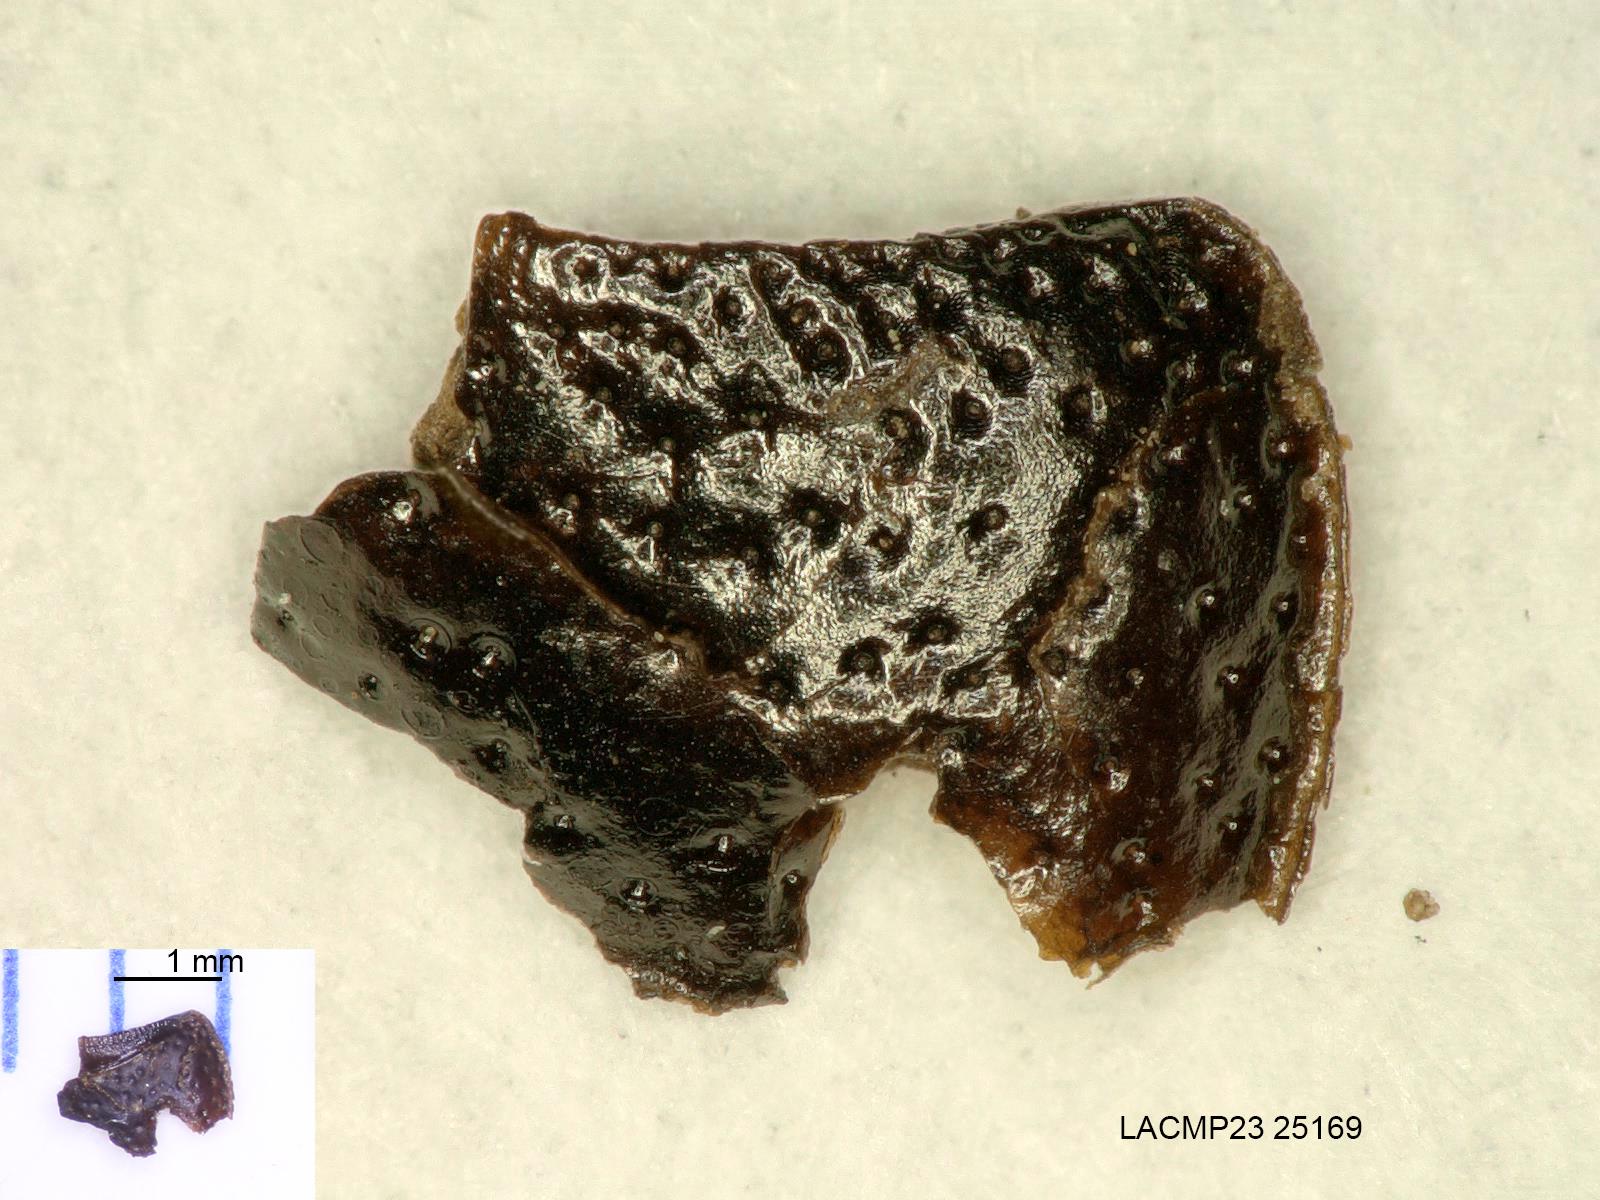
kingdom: Animalia
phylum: Arthropoda
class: Insecta
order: Coleoptera
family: Carabidae
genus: Dicheirus
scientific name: Dicheirus
